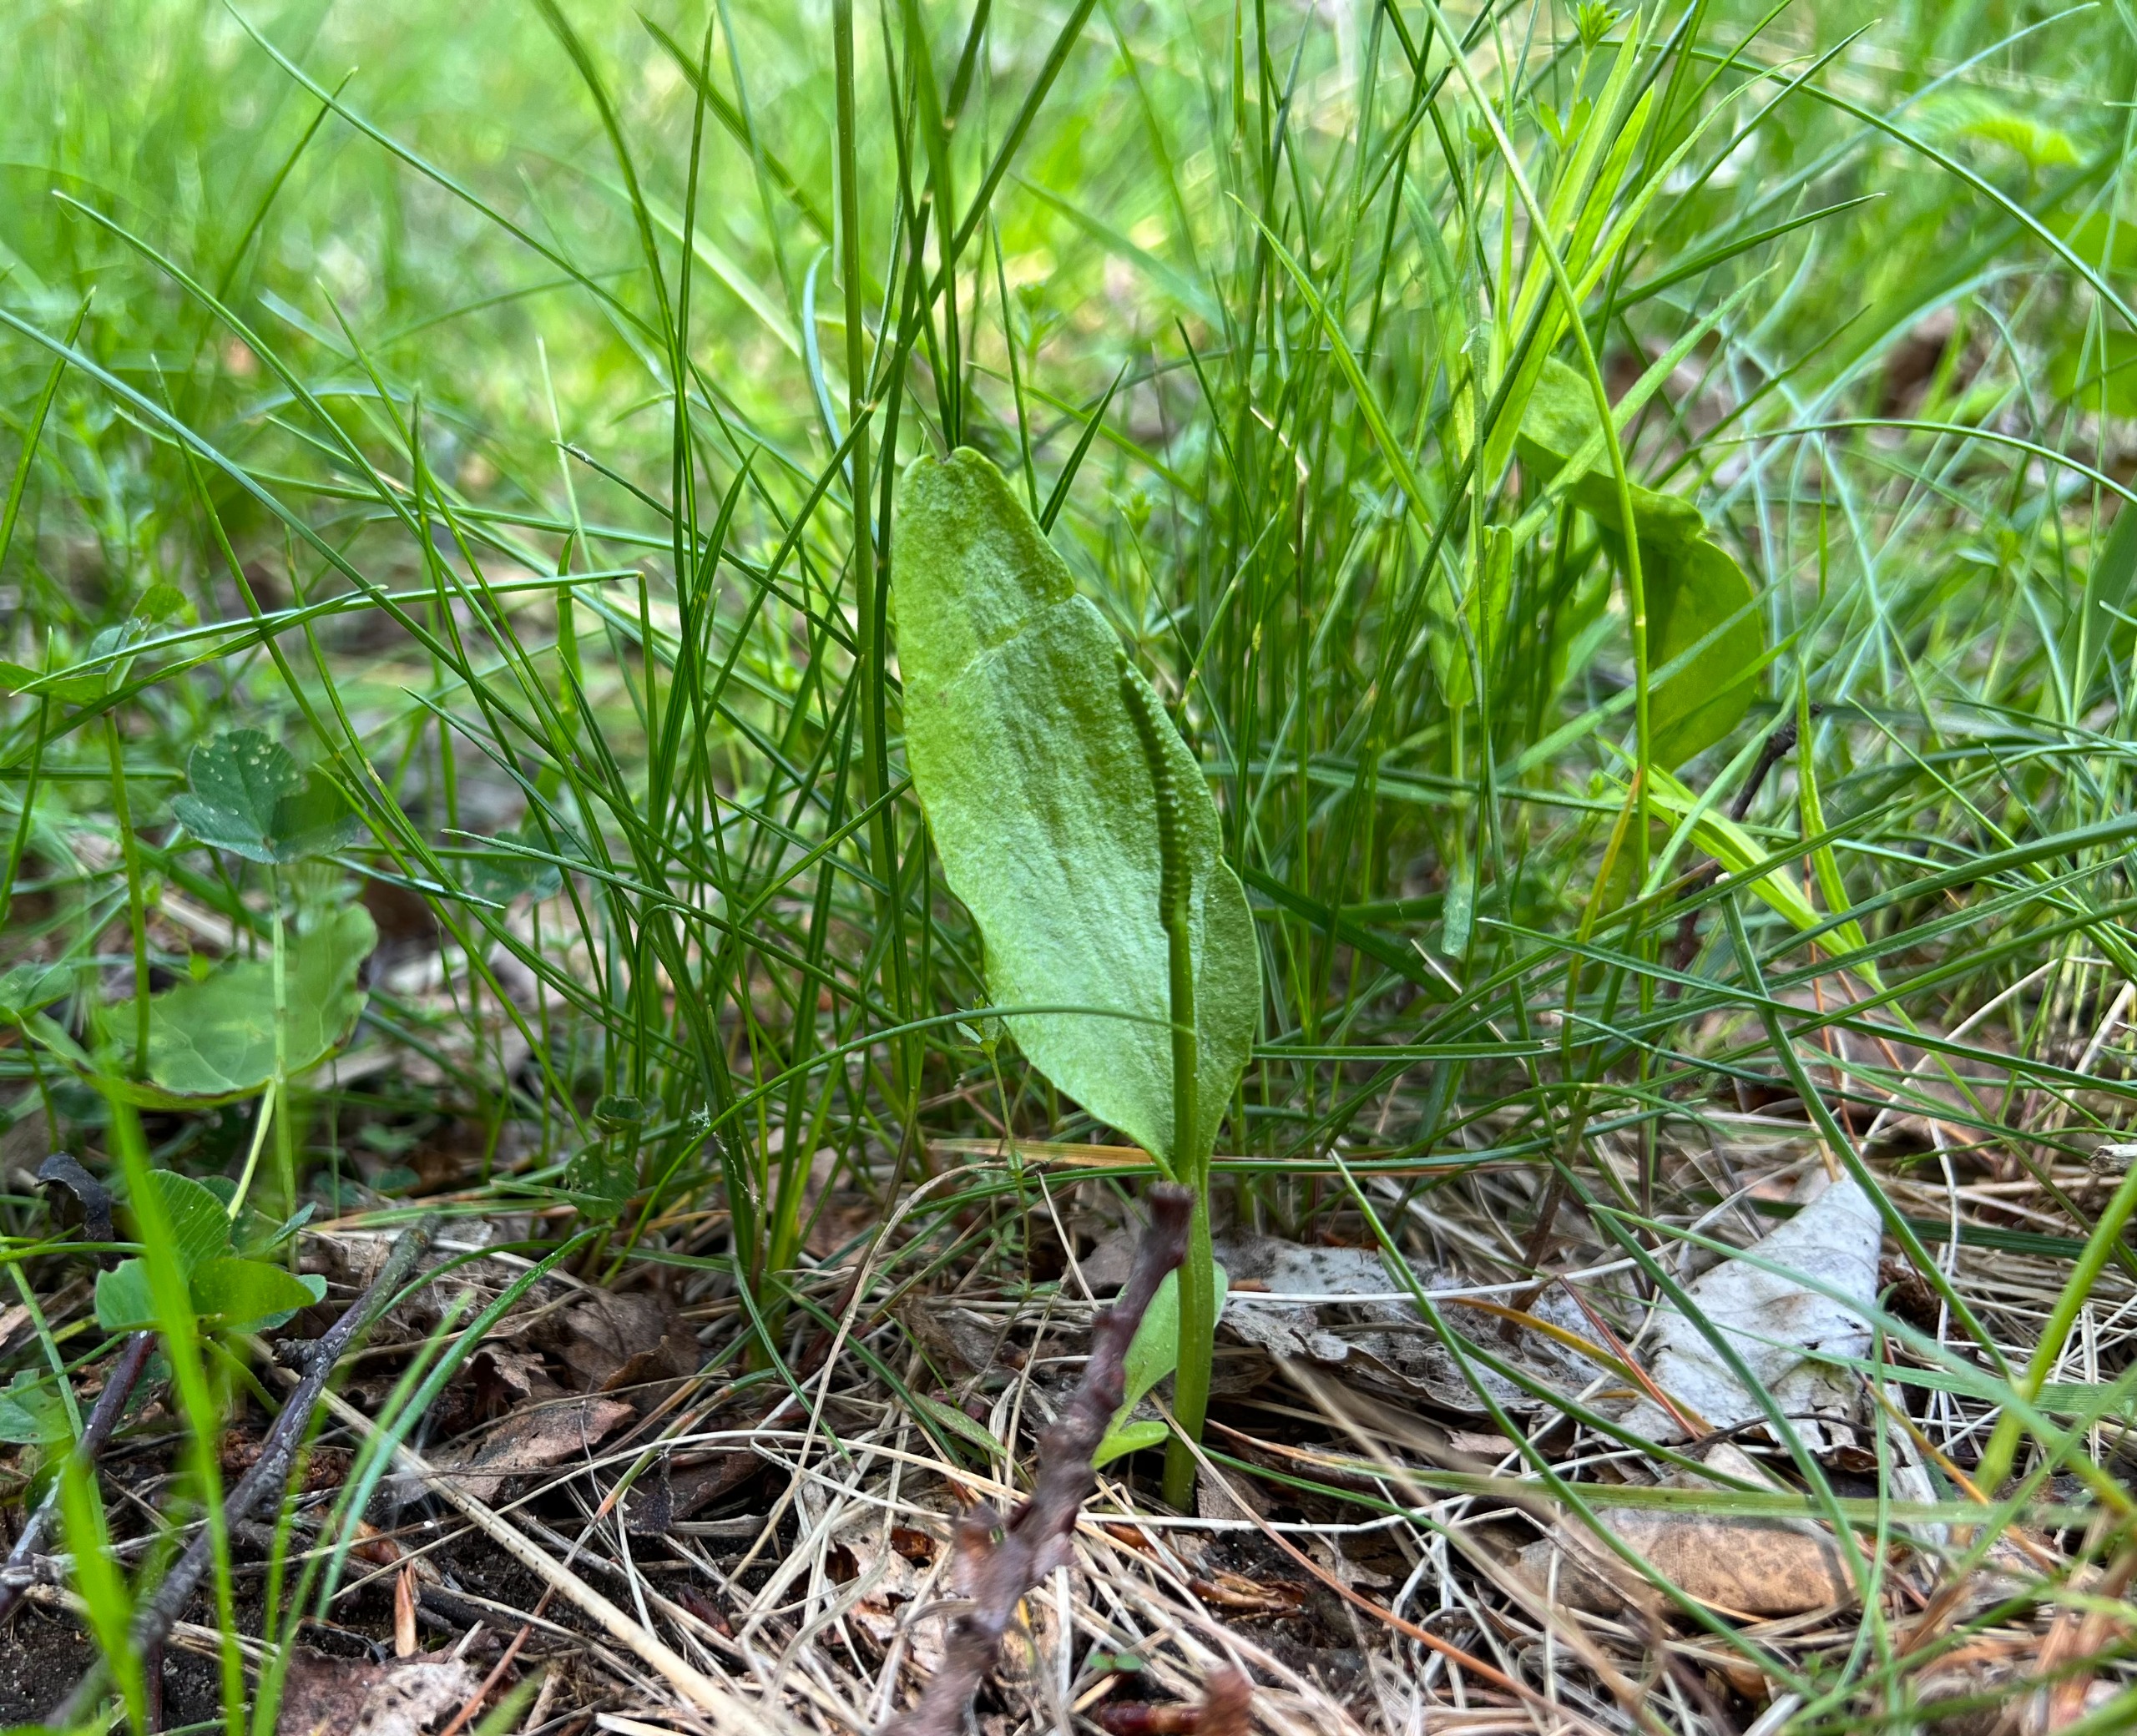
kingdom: Plantae
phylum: Tracheophyta
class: Polypodiopsida
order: Ophioglossales
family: Ophioglossaceae
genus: Ophioglossum
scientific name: Ophioglossum vulgatum
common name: Slangetunge
